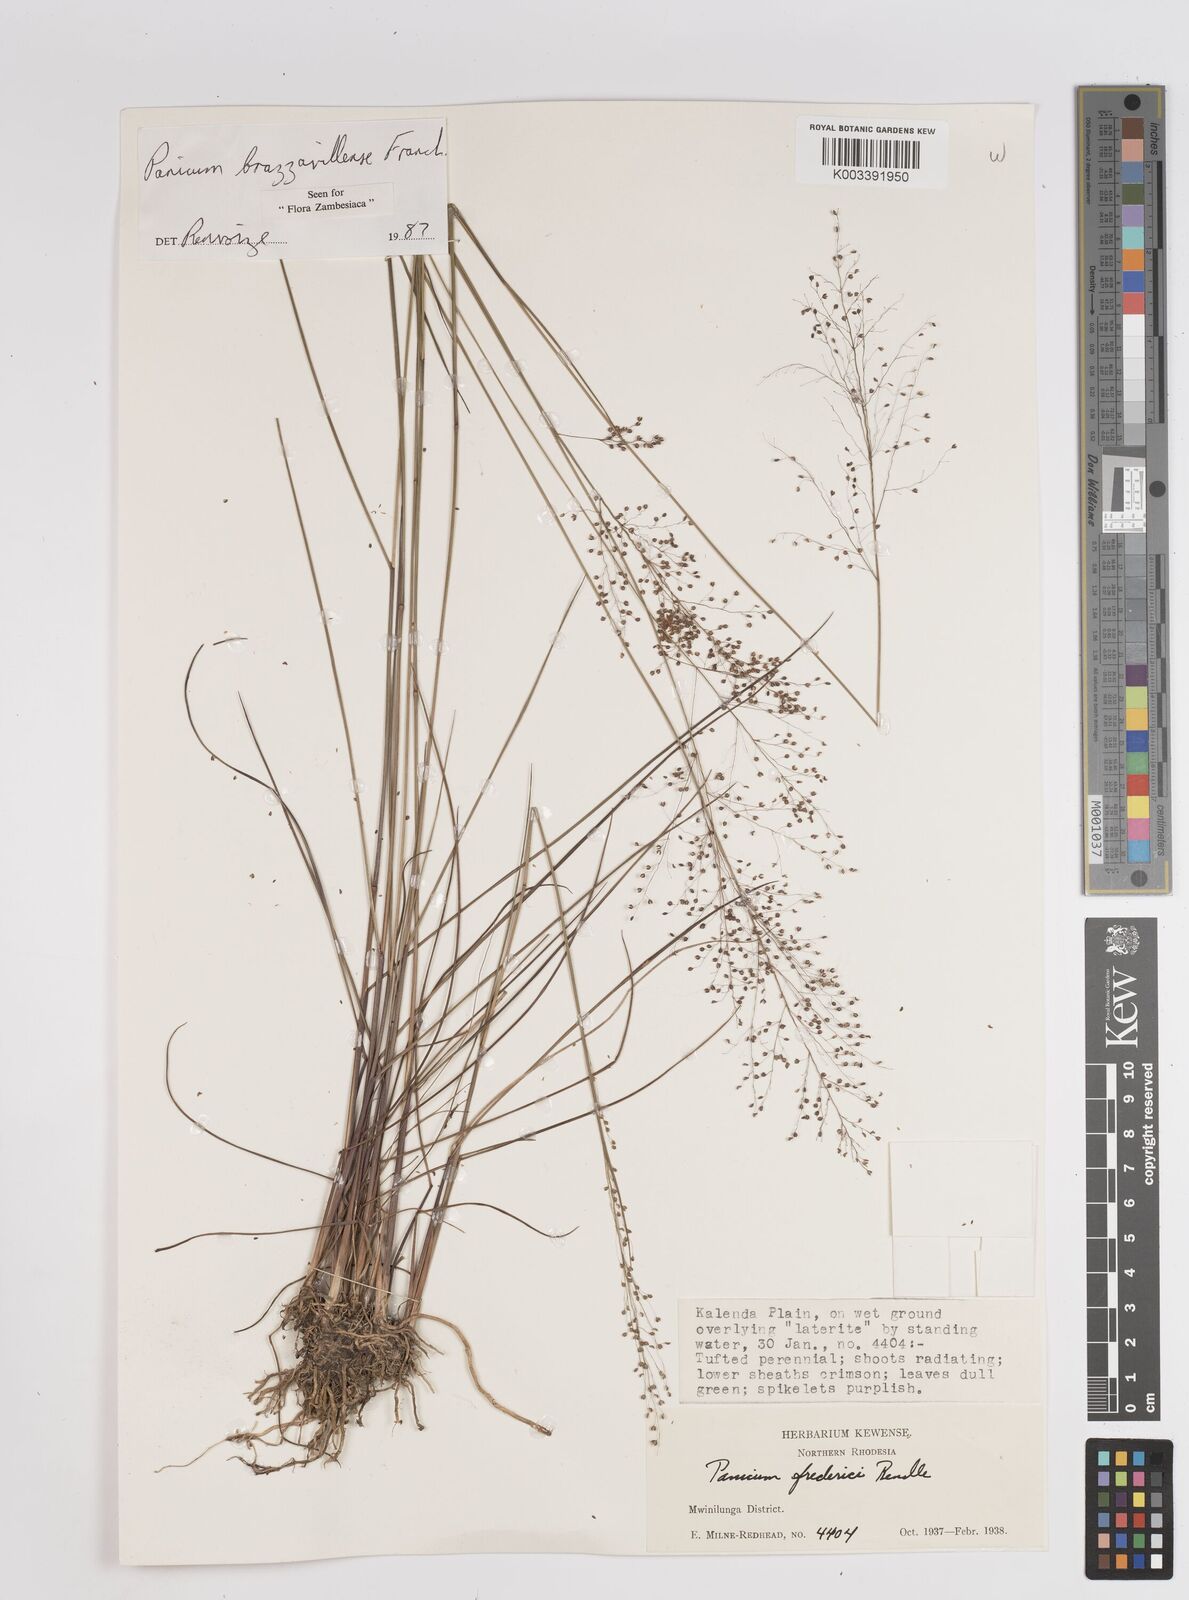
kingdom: Plantae
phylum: Tracheophyta
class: Liliopsida
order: Poales
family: Poaceae
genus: Trichanthecium
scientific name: Trichanthecium brazzavillense
